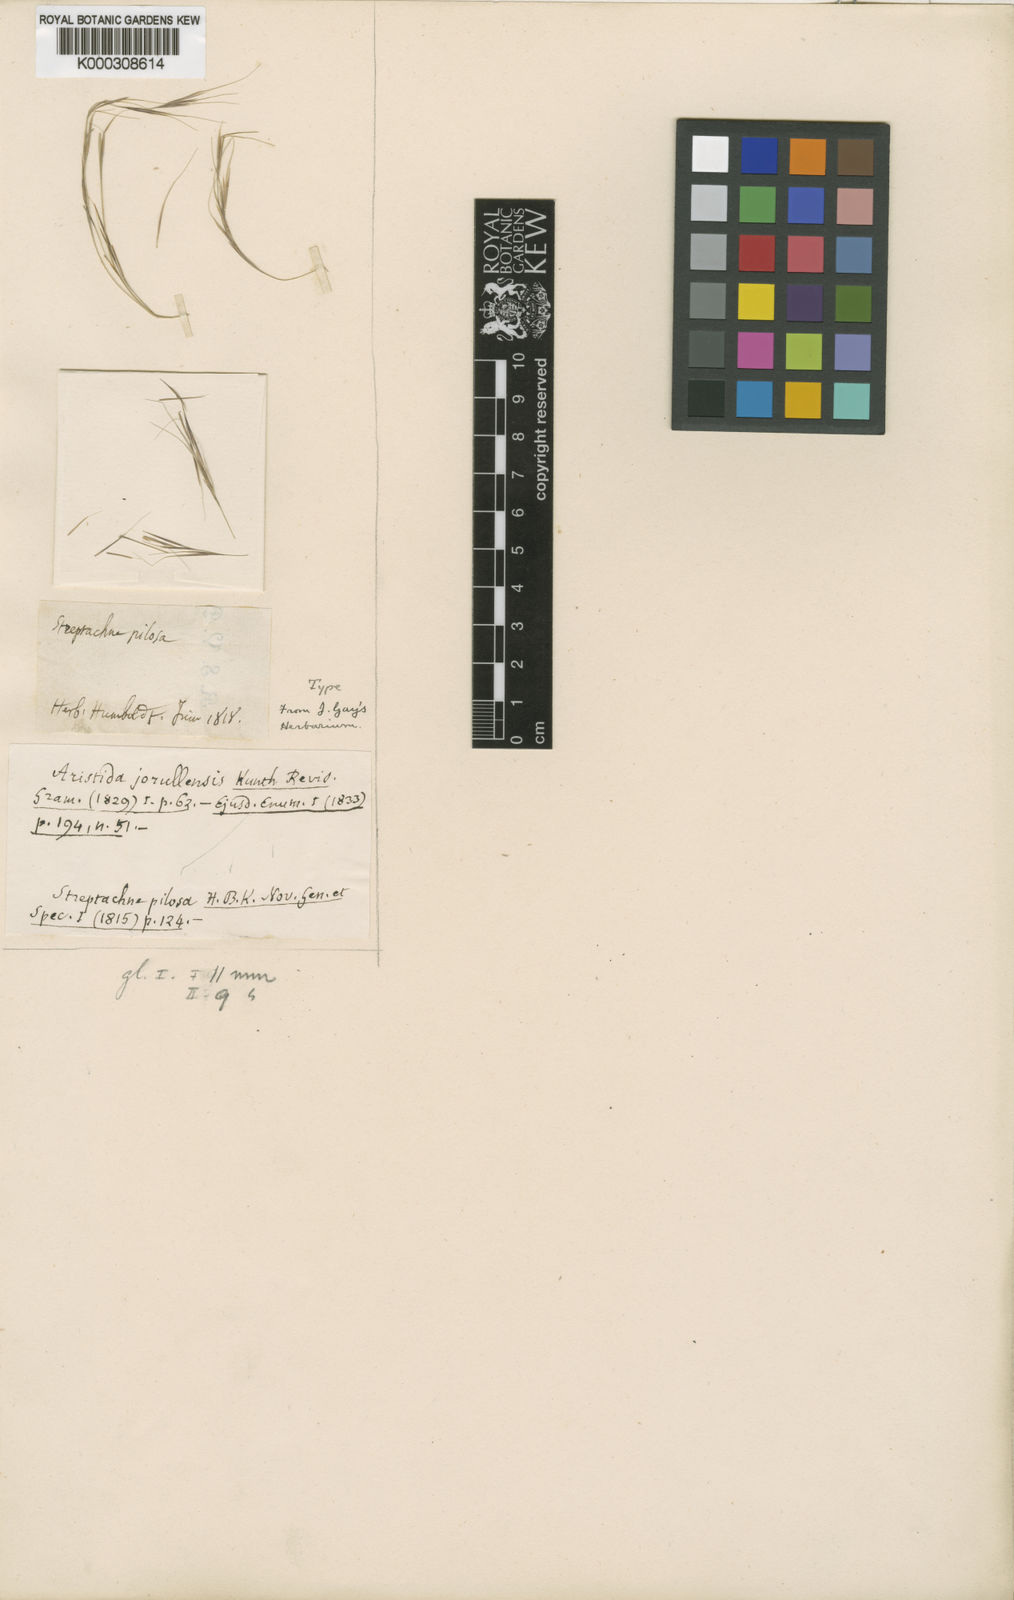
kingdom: Plantae
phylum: Tracheophyta
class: Liliopsida
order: Poales
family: Poaceae
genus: Aristida
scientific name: Aristida jorullensis
